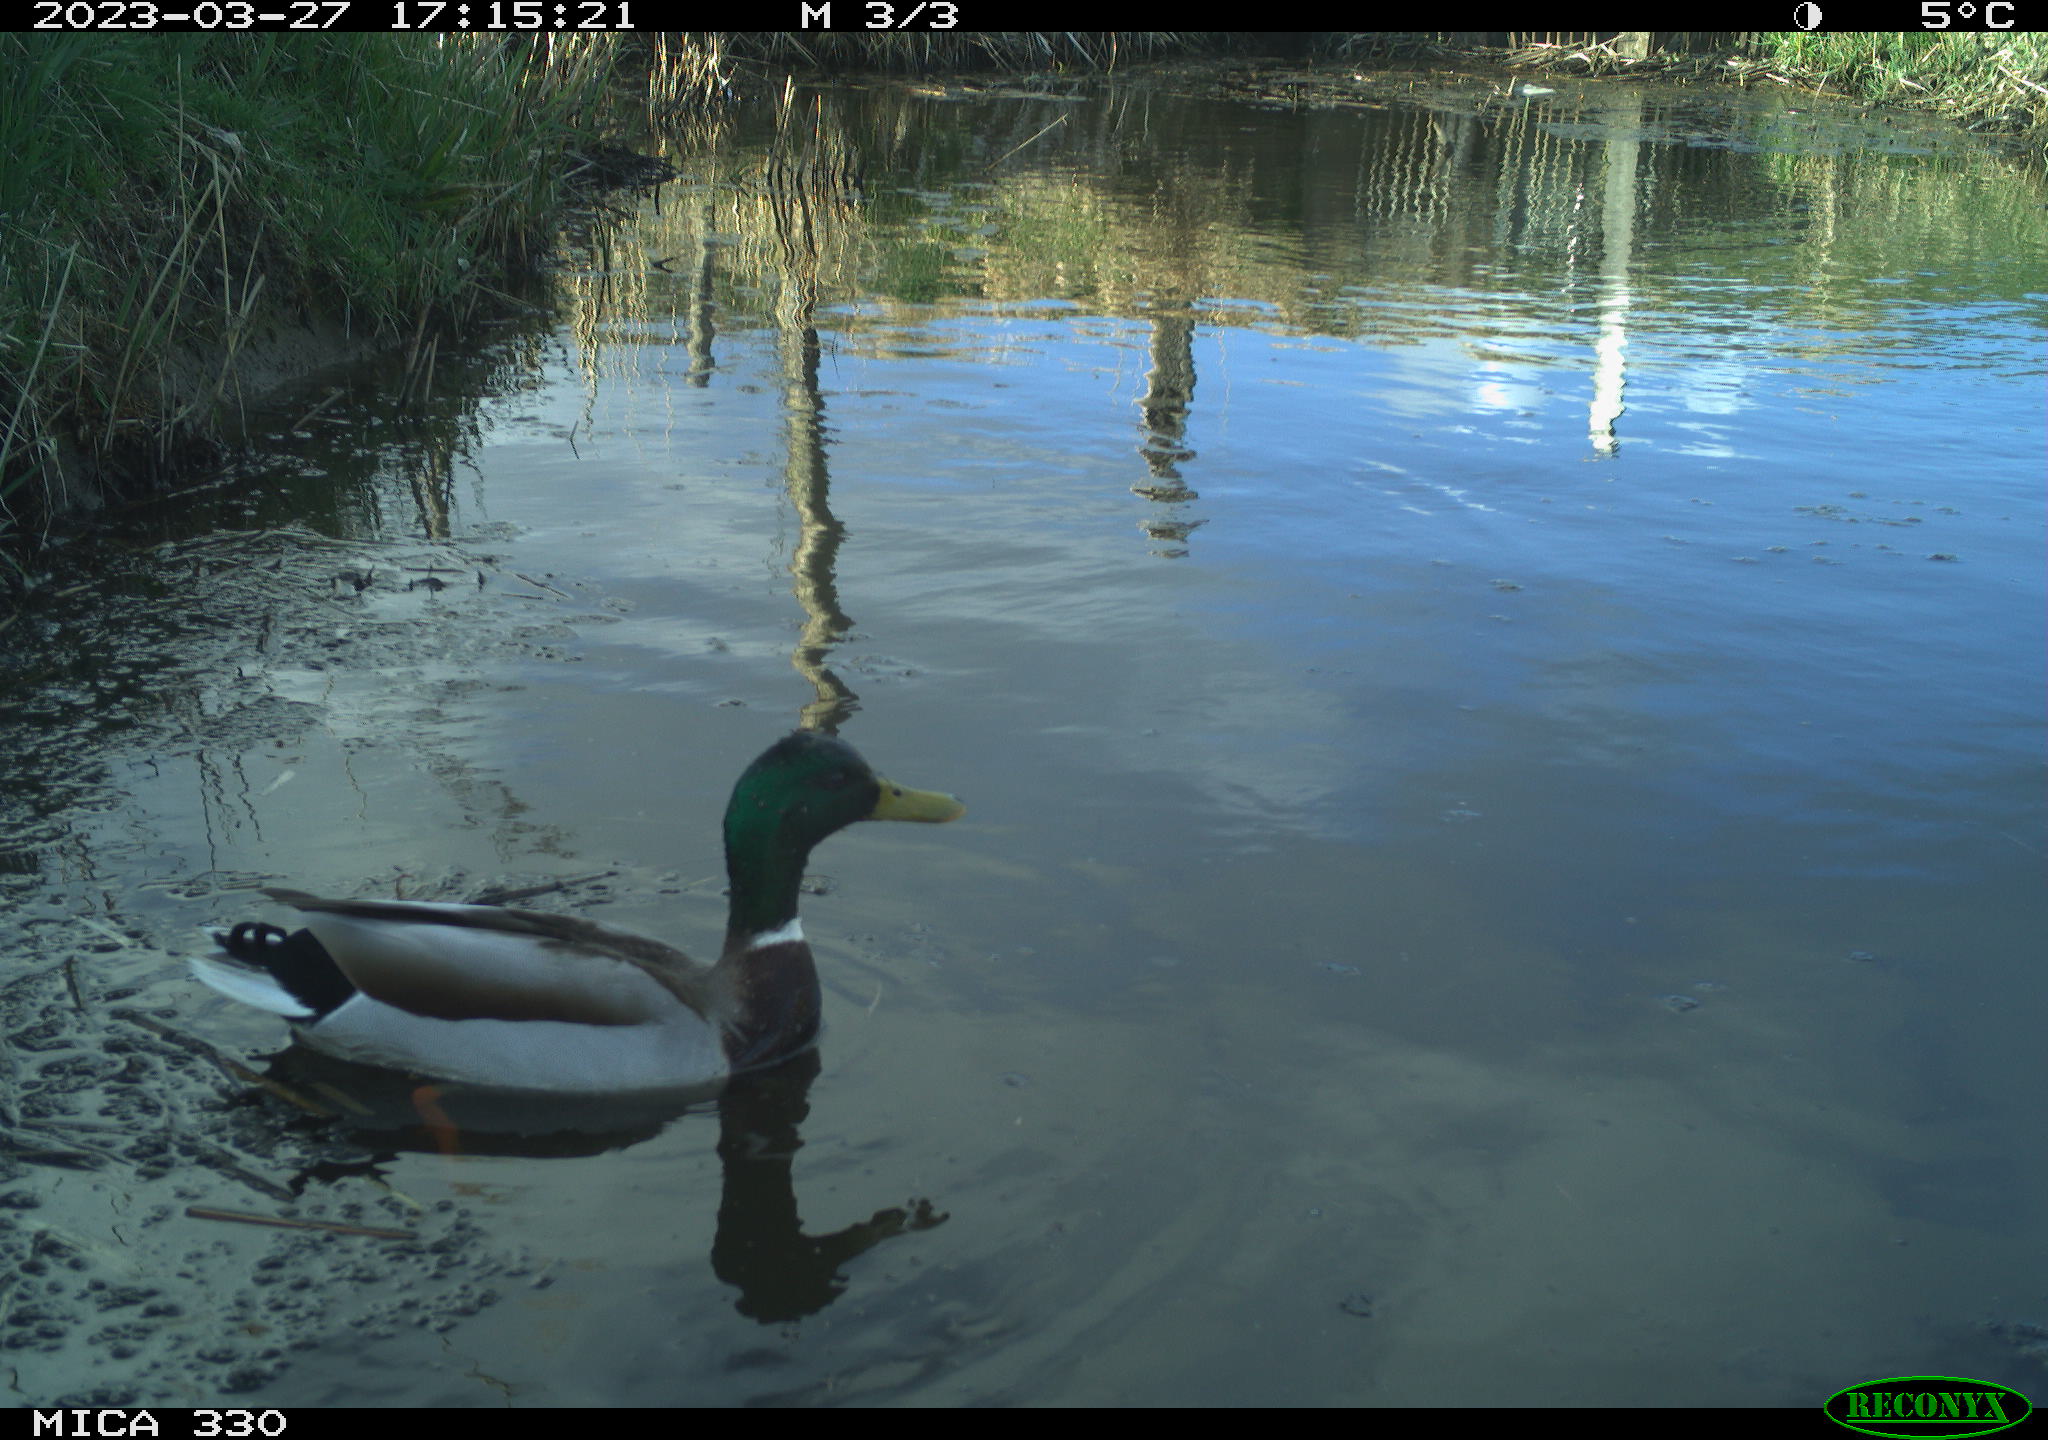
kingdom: Animalia
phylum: Chordata
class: Aves
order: Anseriformes
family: Anatidae
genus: Anas
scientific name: Anas
